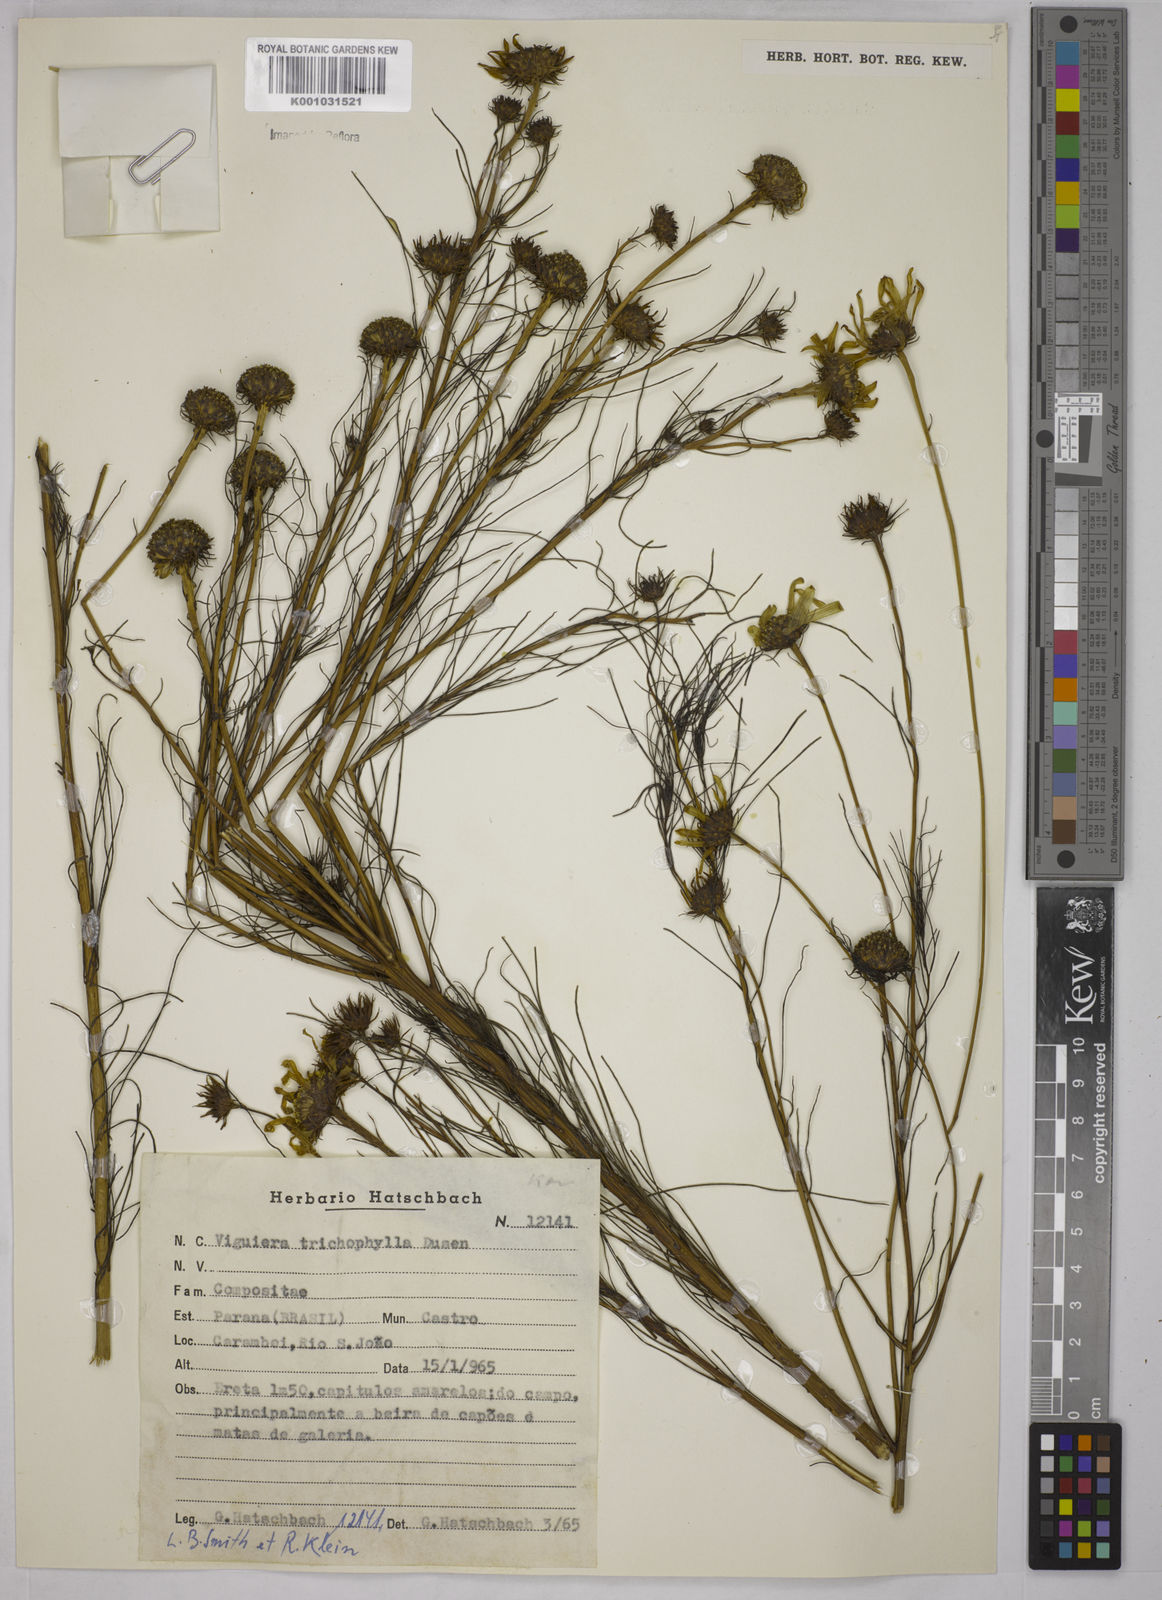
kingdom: Plantae
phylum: Tracheophyta
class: Magnoliopsida
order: Asterales
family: Asteraceae
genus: Viguiera
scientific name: Viguiera
